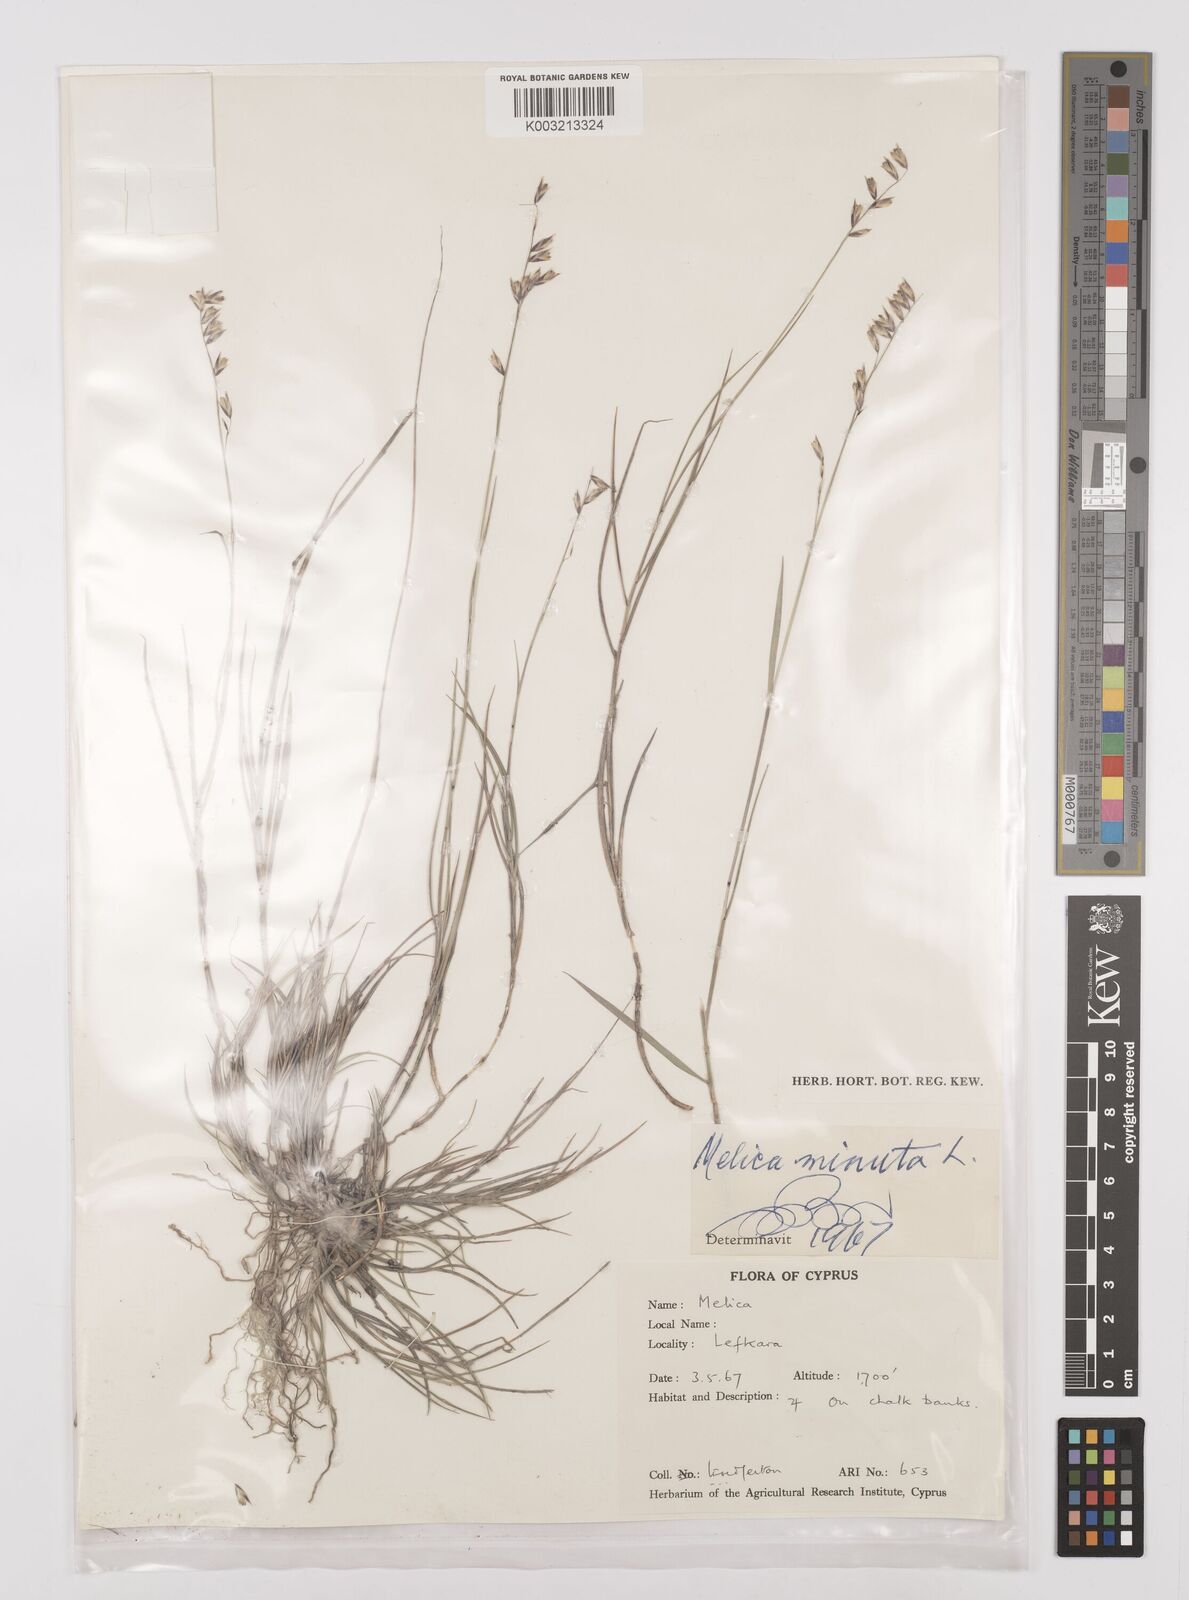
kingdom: Plantae
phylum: Tracheophyta
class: Liliopsida
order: Poales
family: Poaceae
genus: Melica
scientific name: Melica minuta
